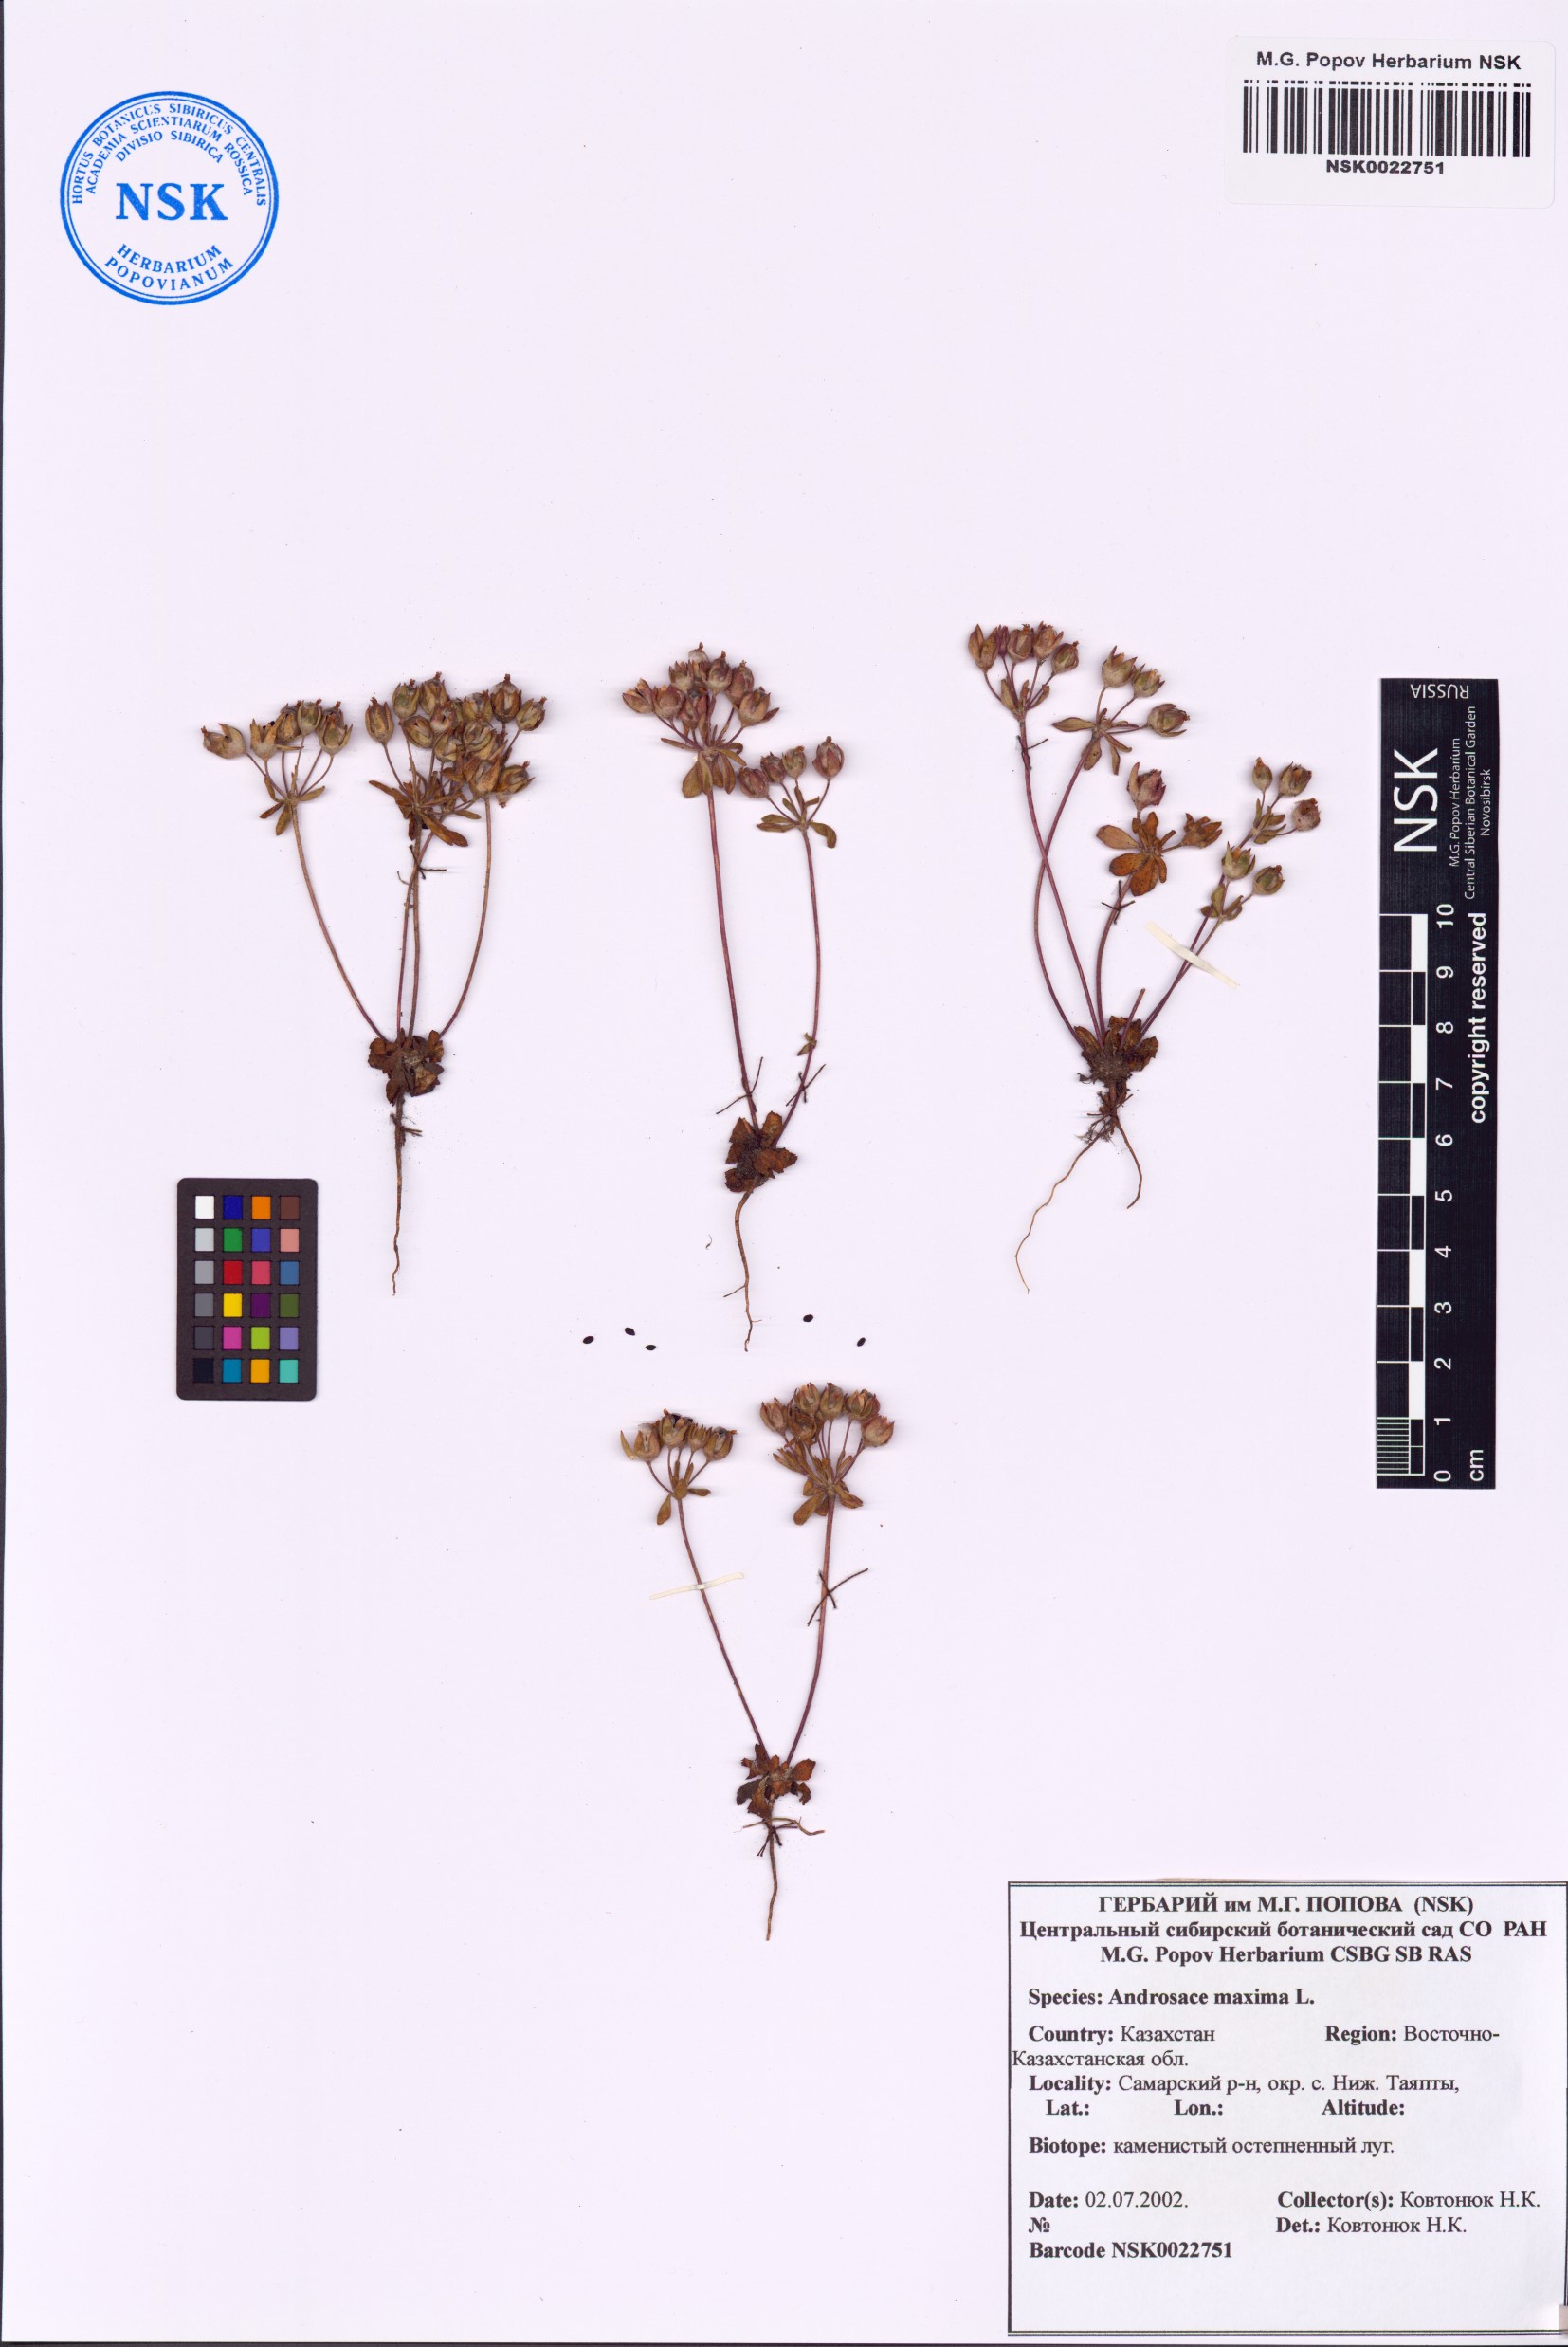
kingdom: Plantae
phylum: Tracheophyta
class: Magnoliopsida
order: Ericales
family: Primulaceae
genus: Androsace
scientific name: Androsace maxima
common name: Annual androsace
